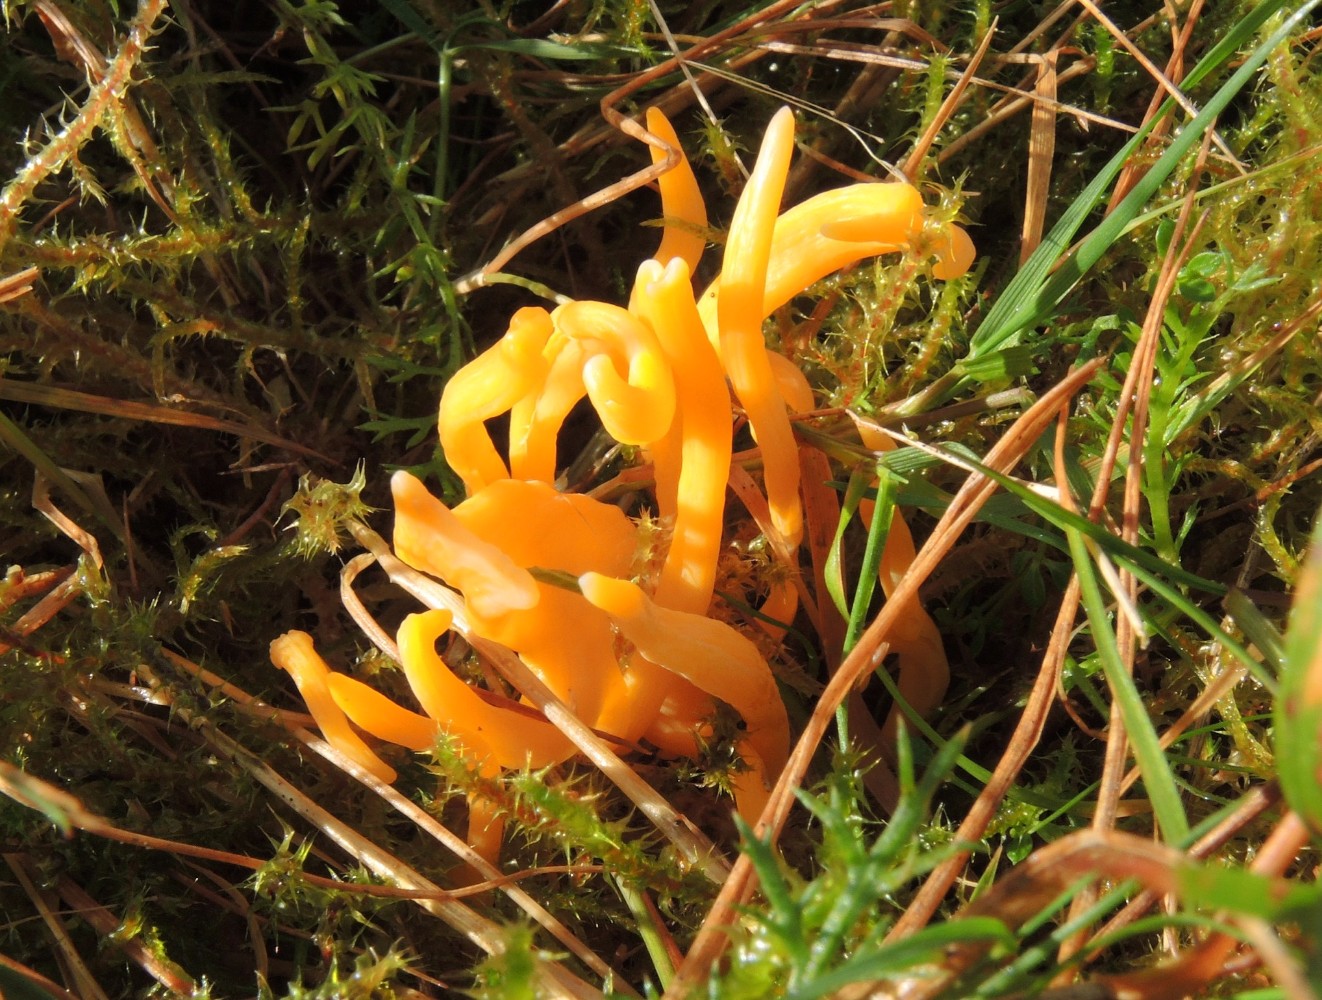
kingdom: Fungi
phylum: Basidiomycota
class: Agaricomycetes
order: Agaricales
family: Clavariaceae
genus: Clavulinopsis
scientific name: Clavulinopsis luteoalba
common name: abrikos-køllesvamp
